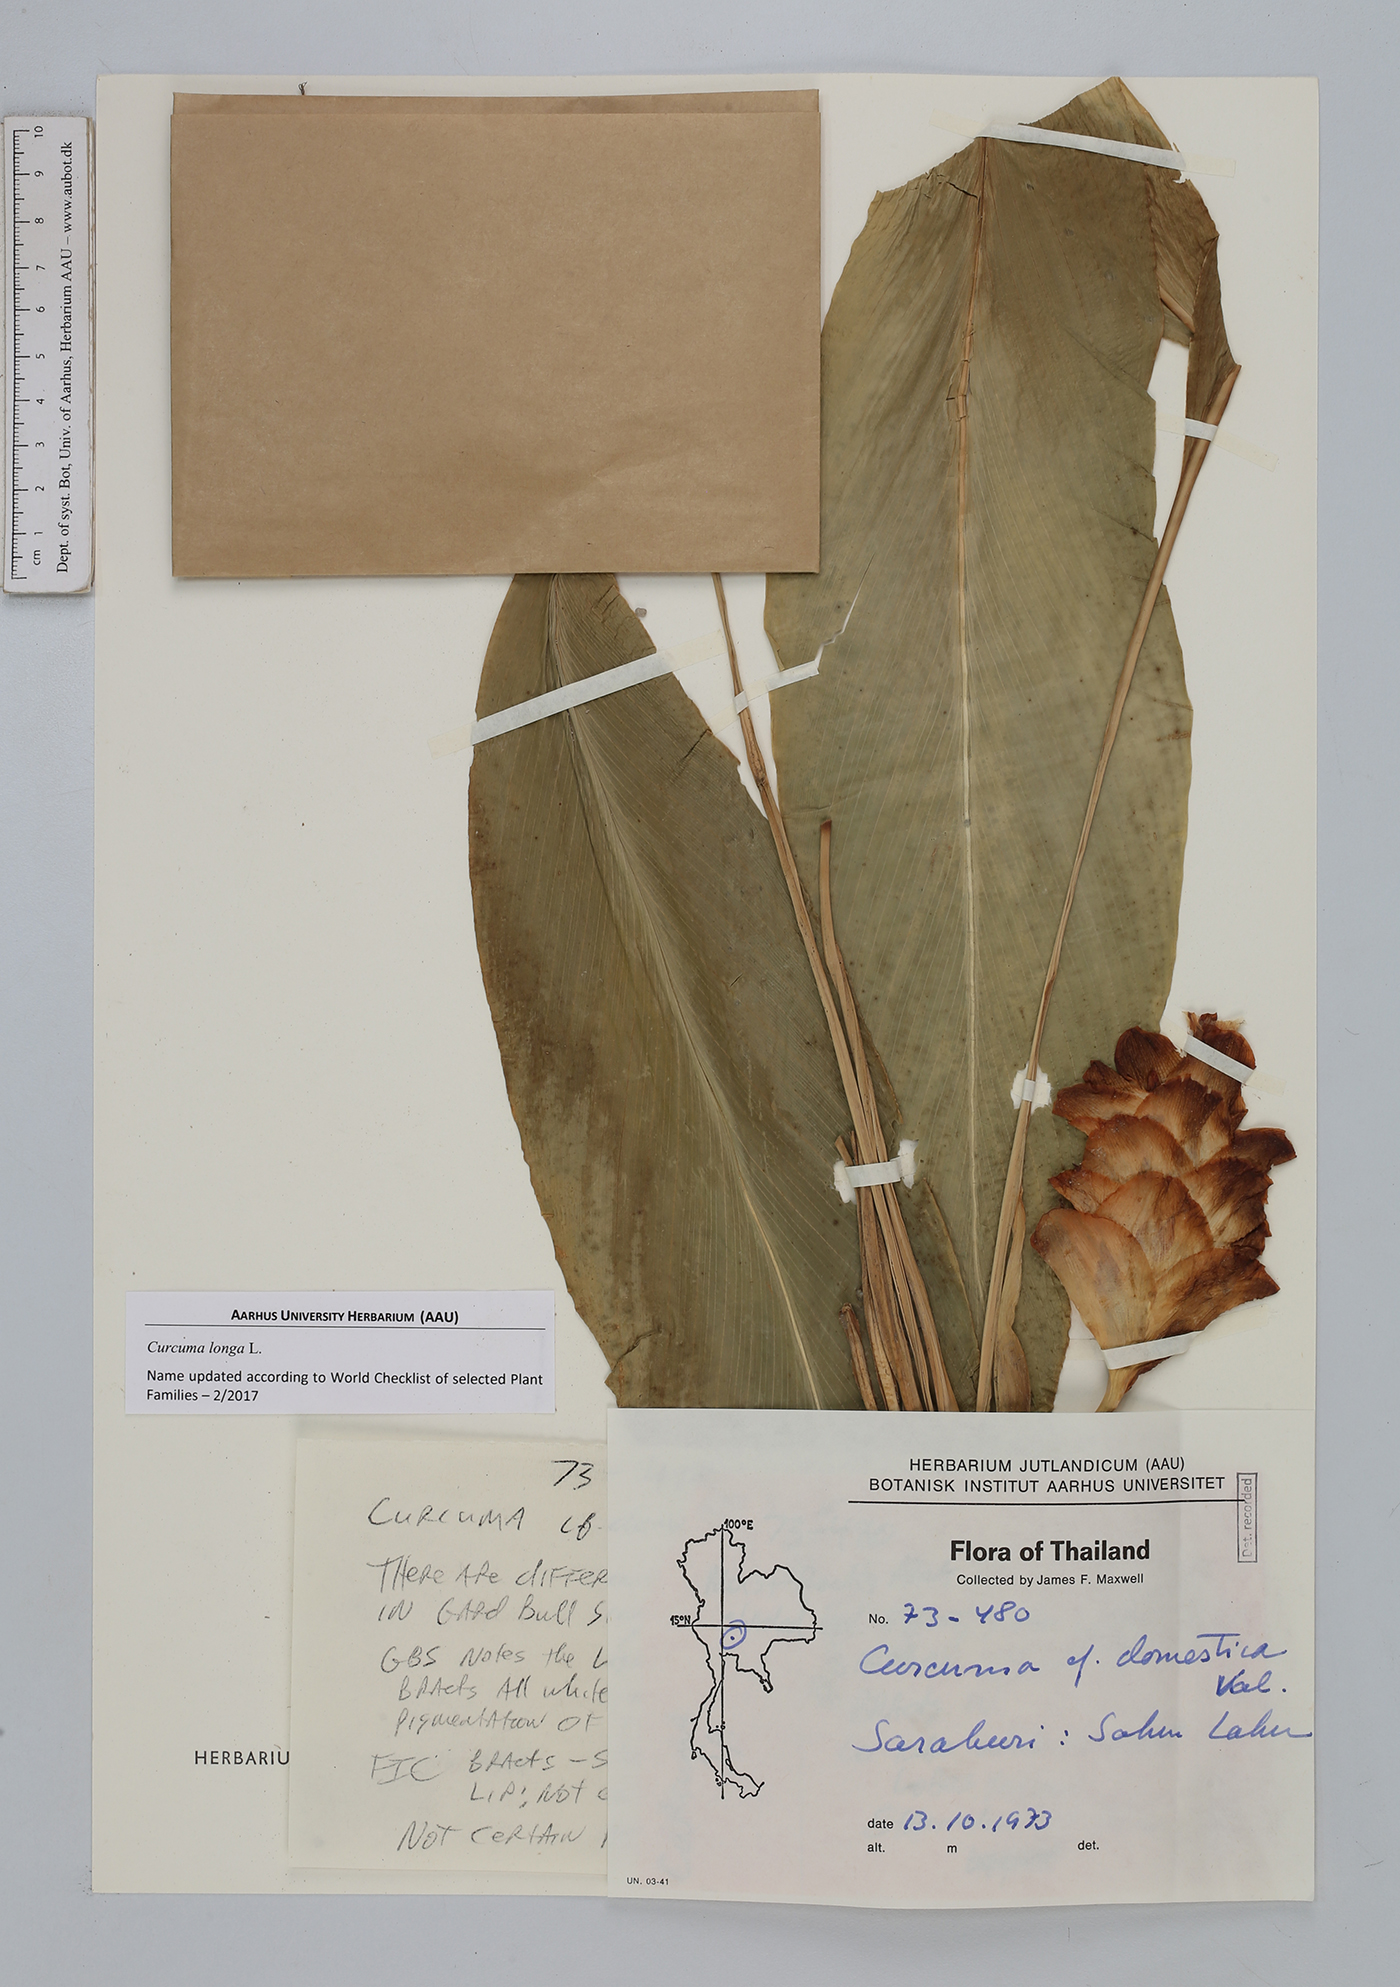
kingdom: Plantae
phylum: Tracheophyta
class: Liliopsida
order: Zingiberales
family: Zingiberaceae
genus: Curcuma
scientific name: Curcuma longa
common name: Turmeric
